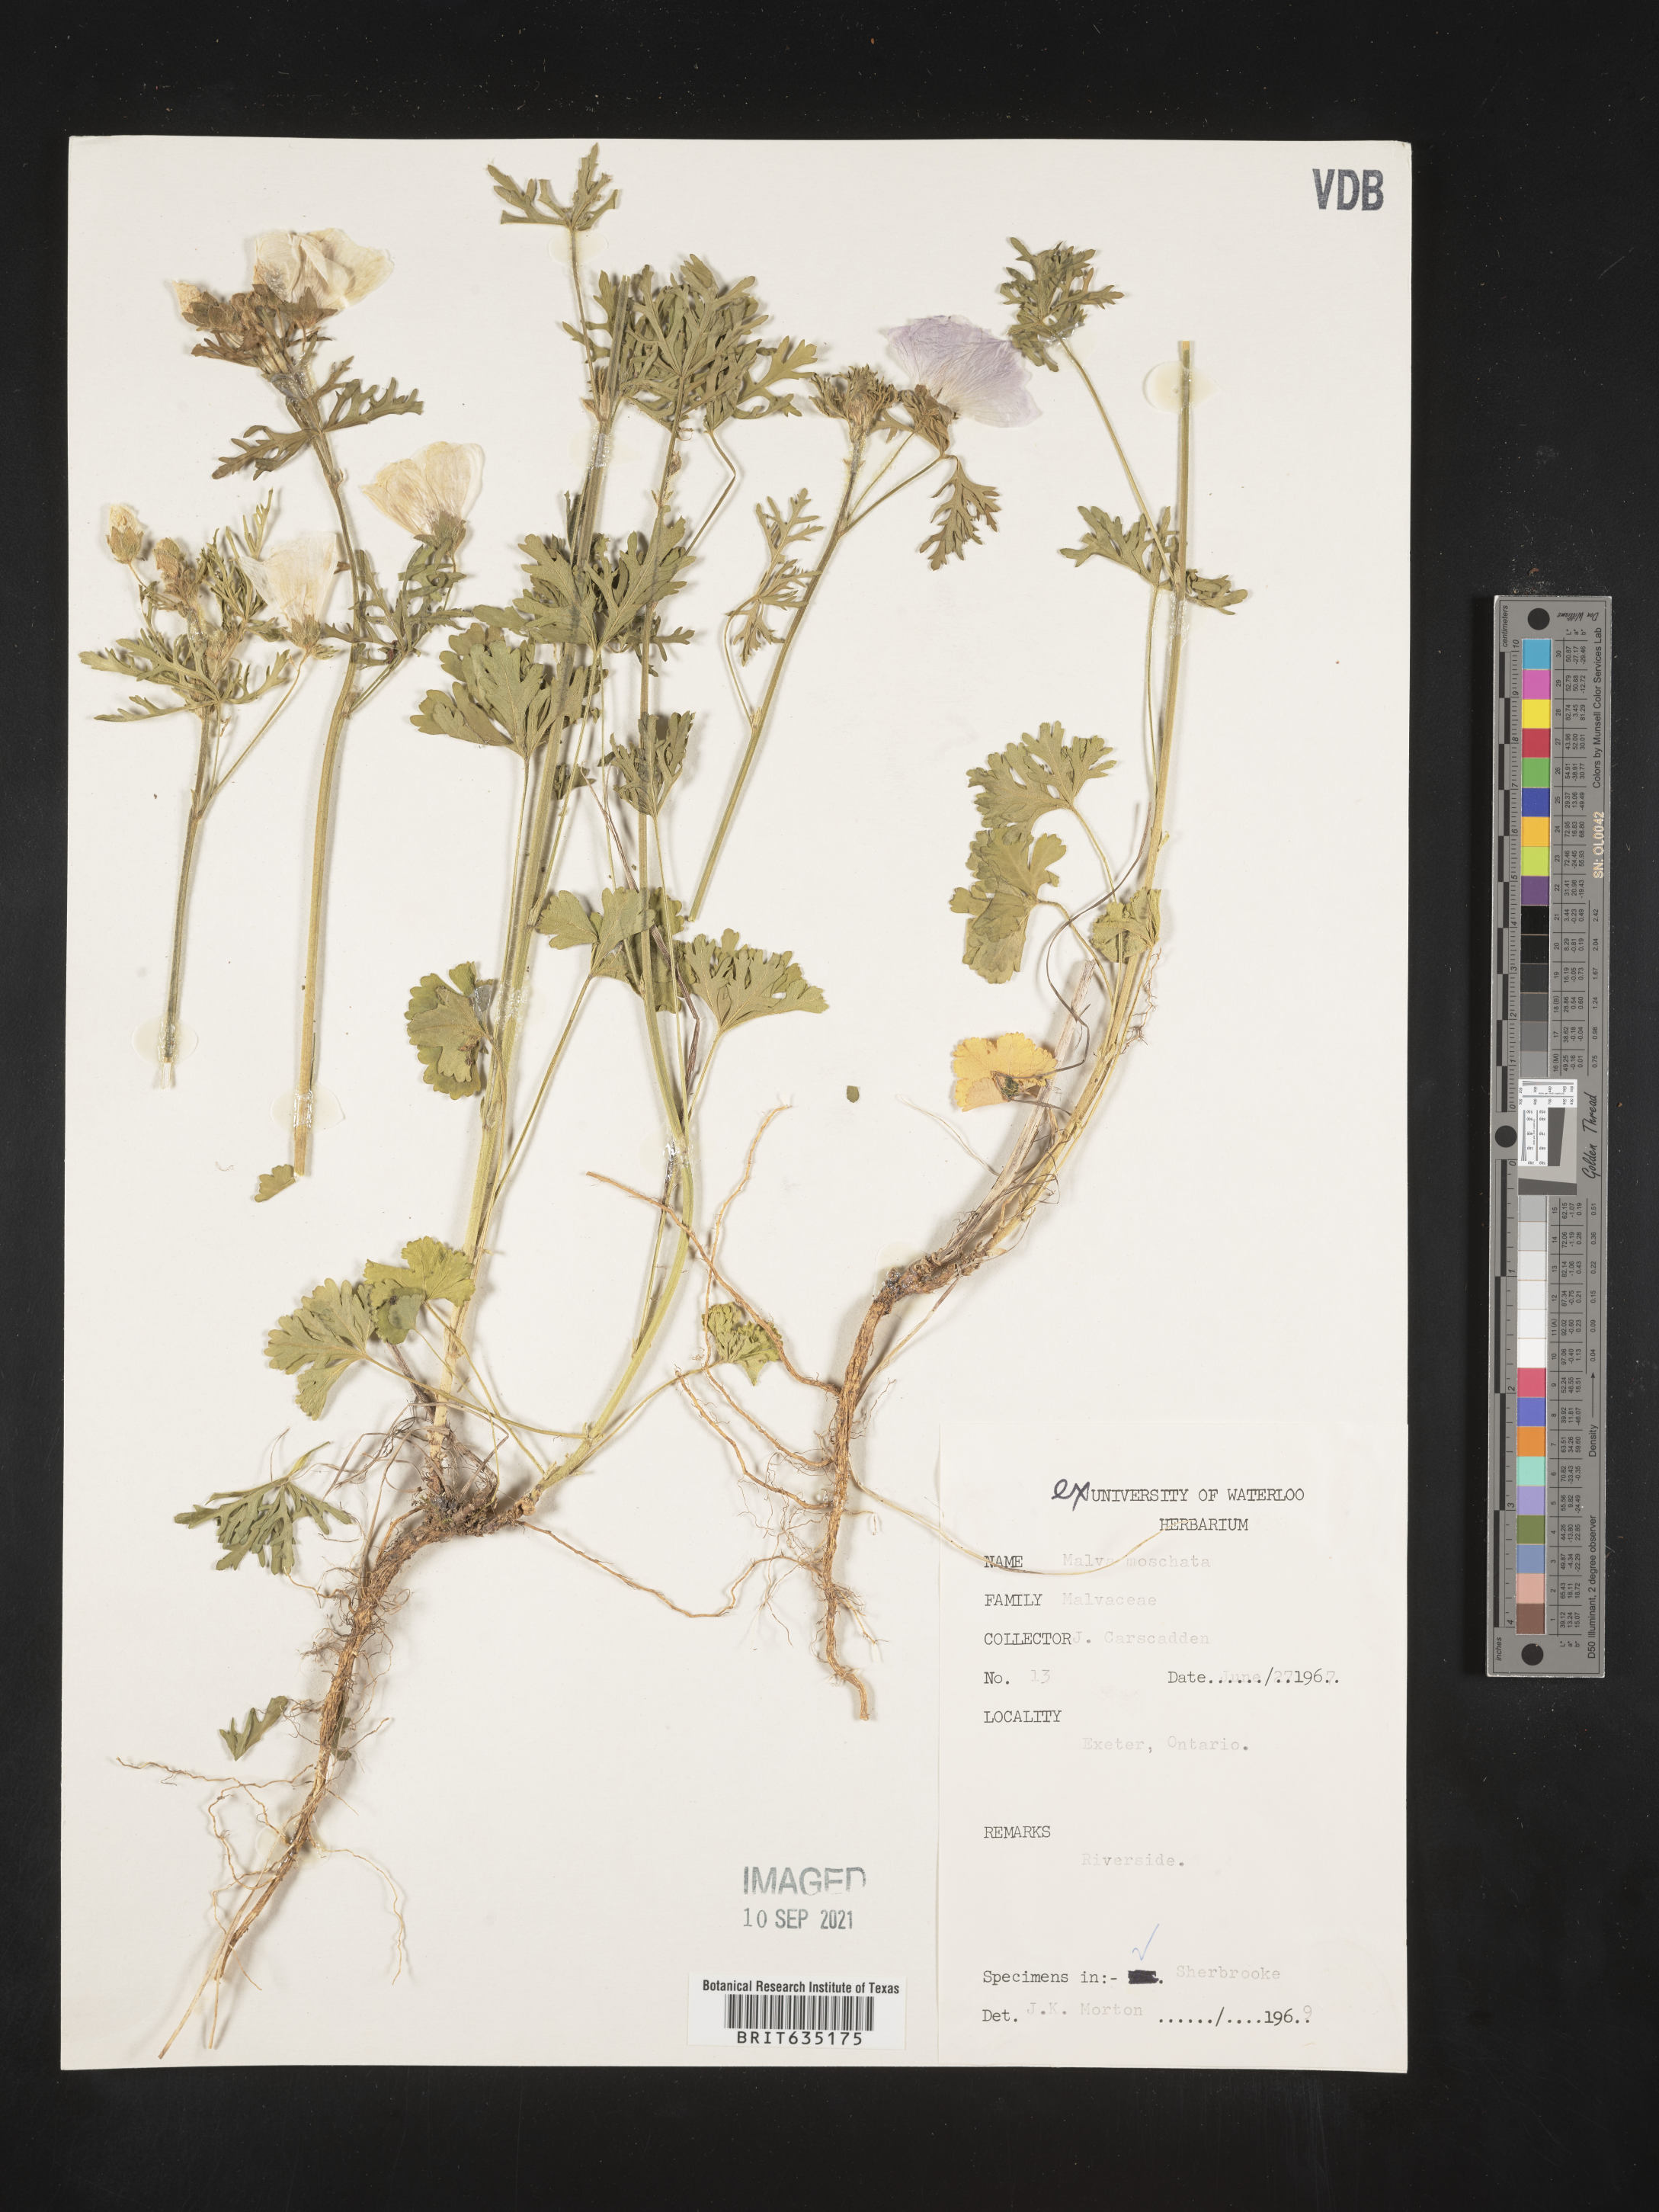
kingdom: Plantae
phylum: Tracheophyta
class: Magnoliopsida
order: Malvales
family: Malvaceae
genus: Malva
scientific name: Malva
